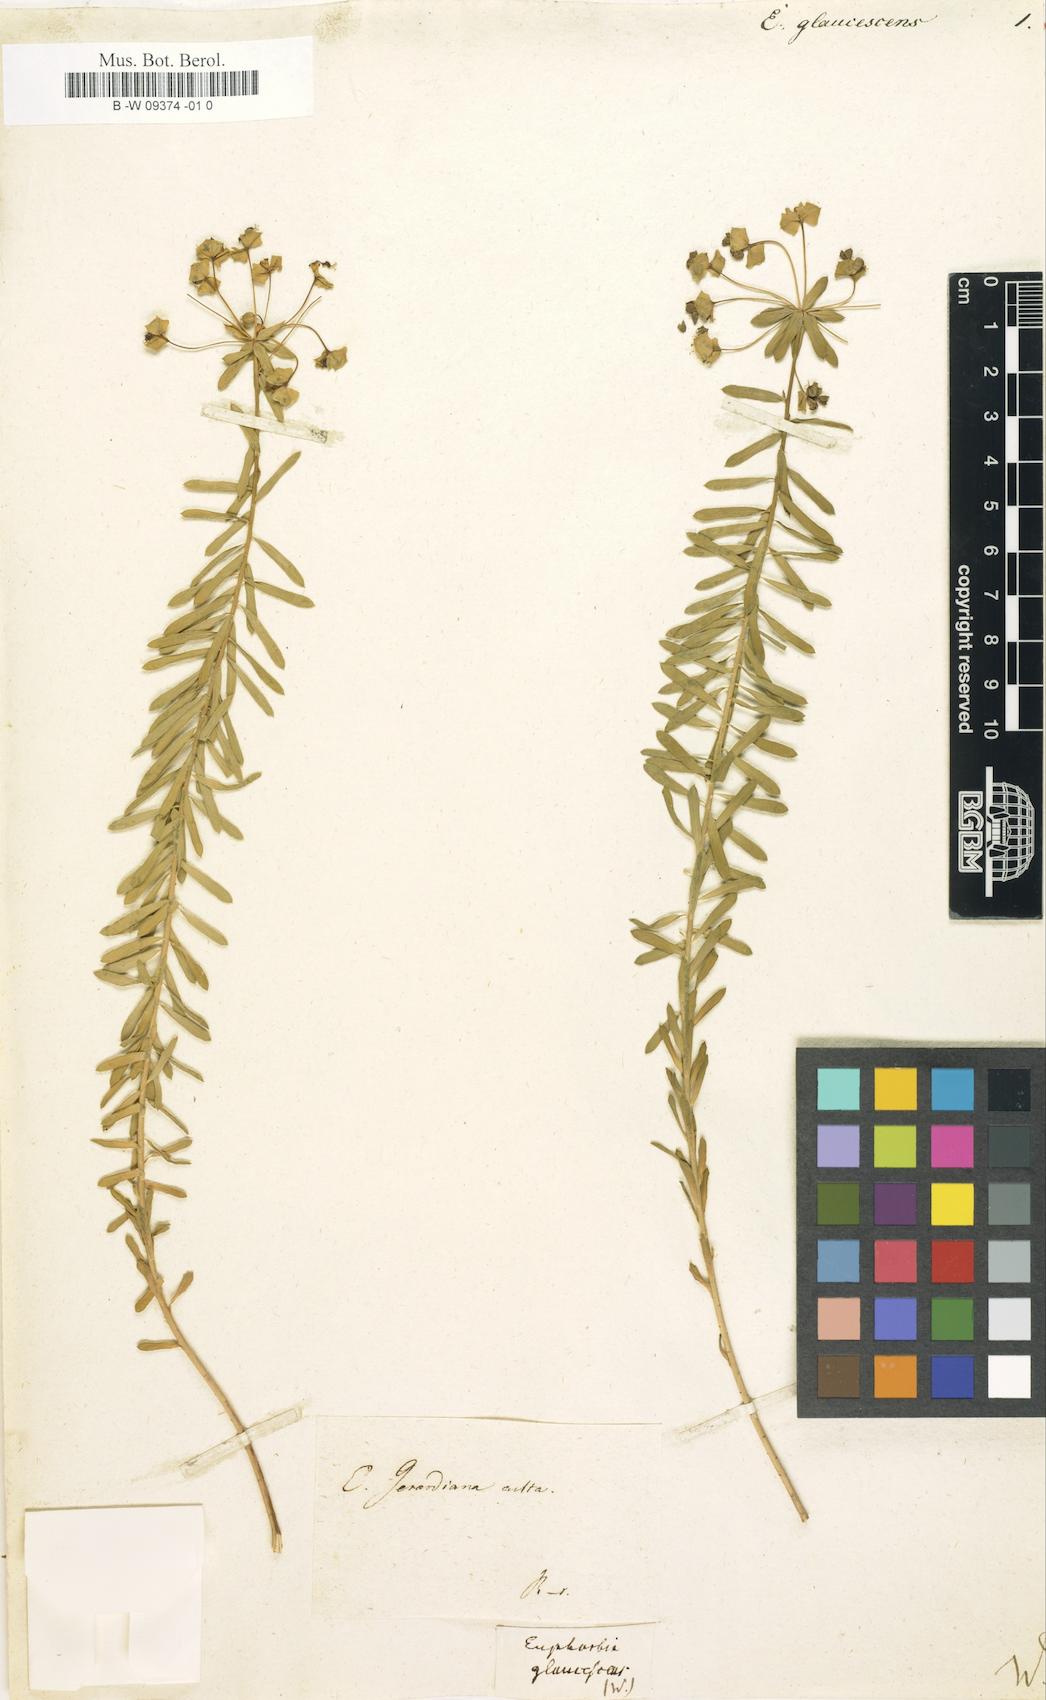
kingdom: Plantae
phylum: Tracheophyta
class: Magnoliopsida
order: Malpighiales
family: Euphorbiaceae
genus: Euphorbia
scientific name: Euphorbia glaucescens
